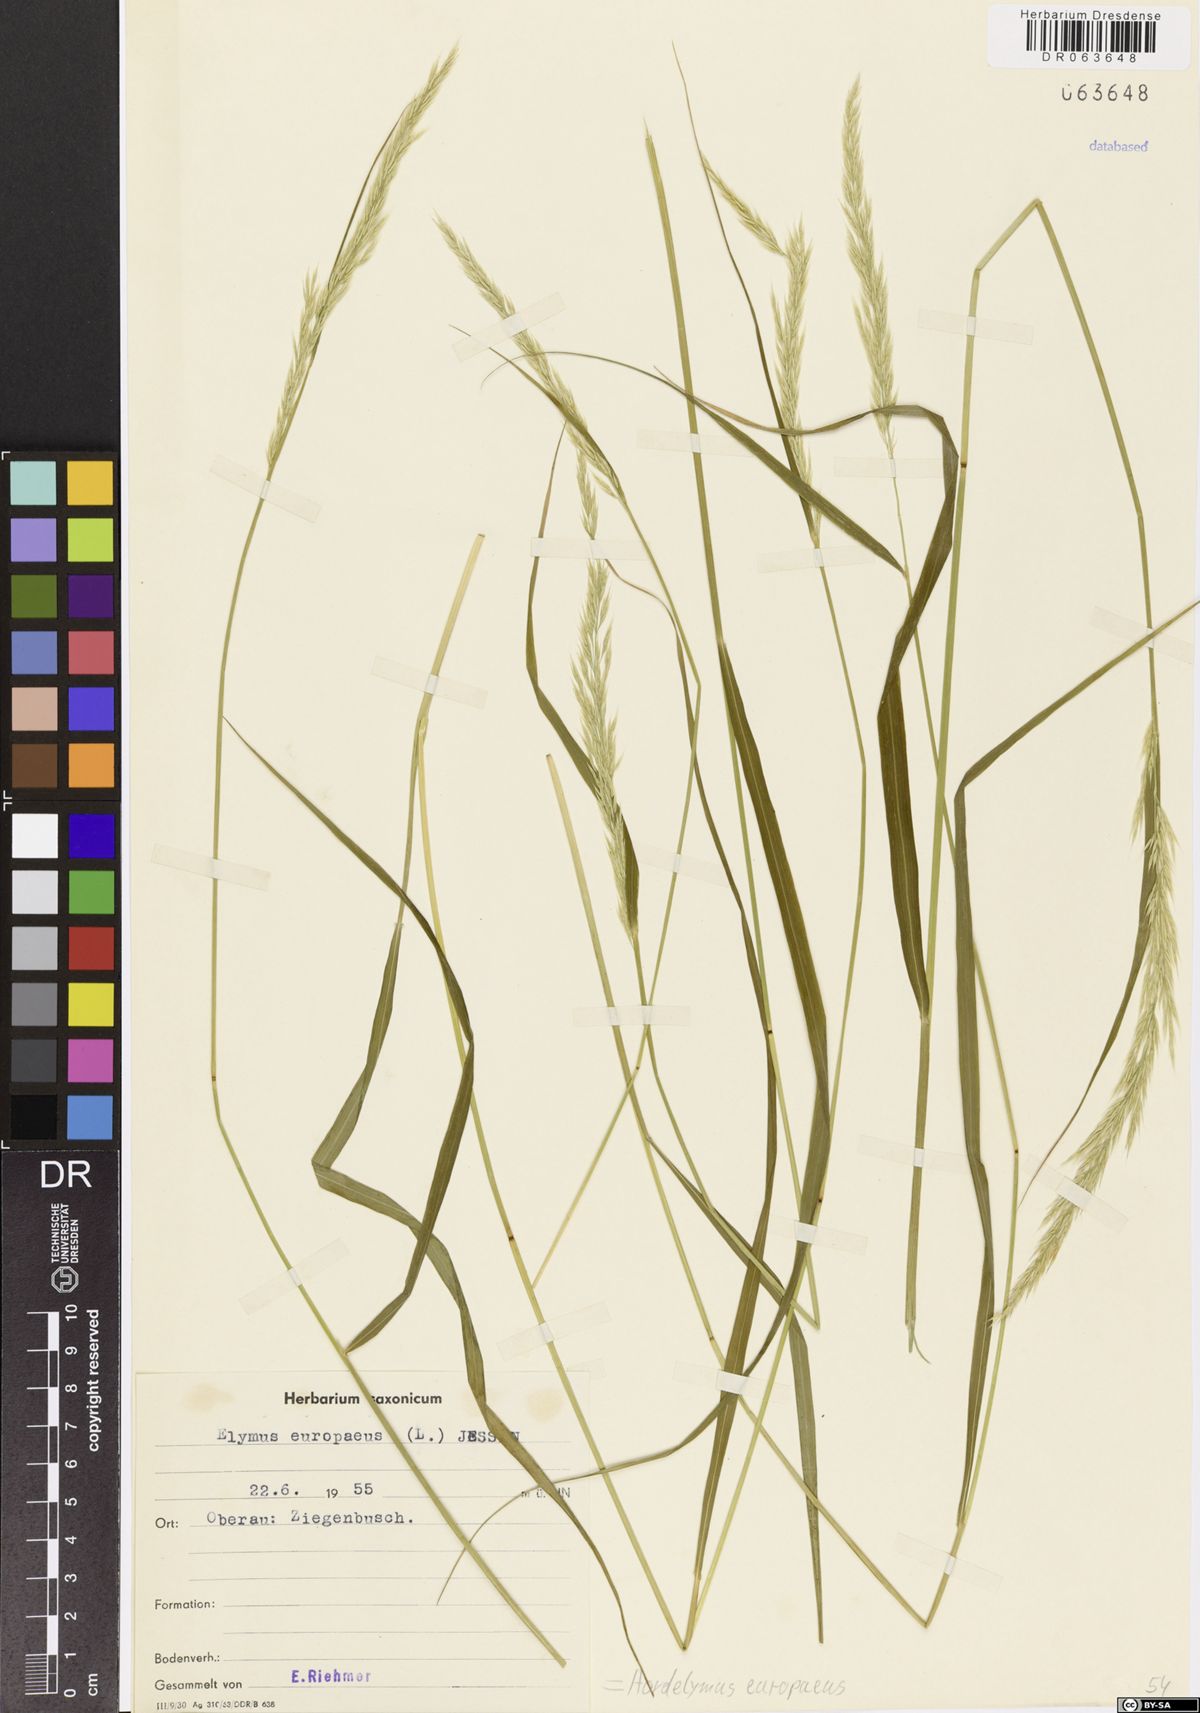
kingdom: Plantae
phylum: Tracheophyta
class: Liliopsida
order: Poales
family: Poaceae
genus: Hordelymus
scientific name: Hordelymus europaeus
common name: Wood-barley
